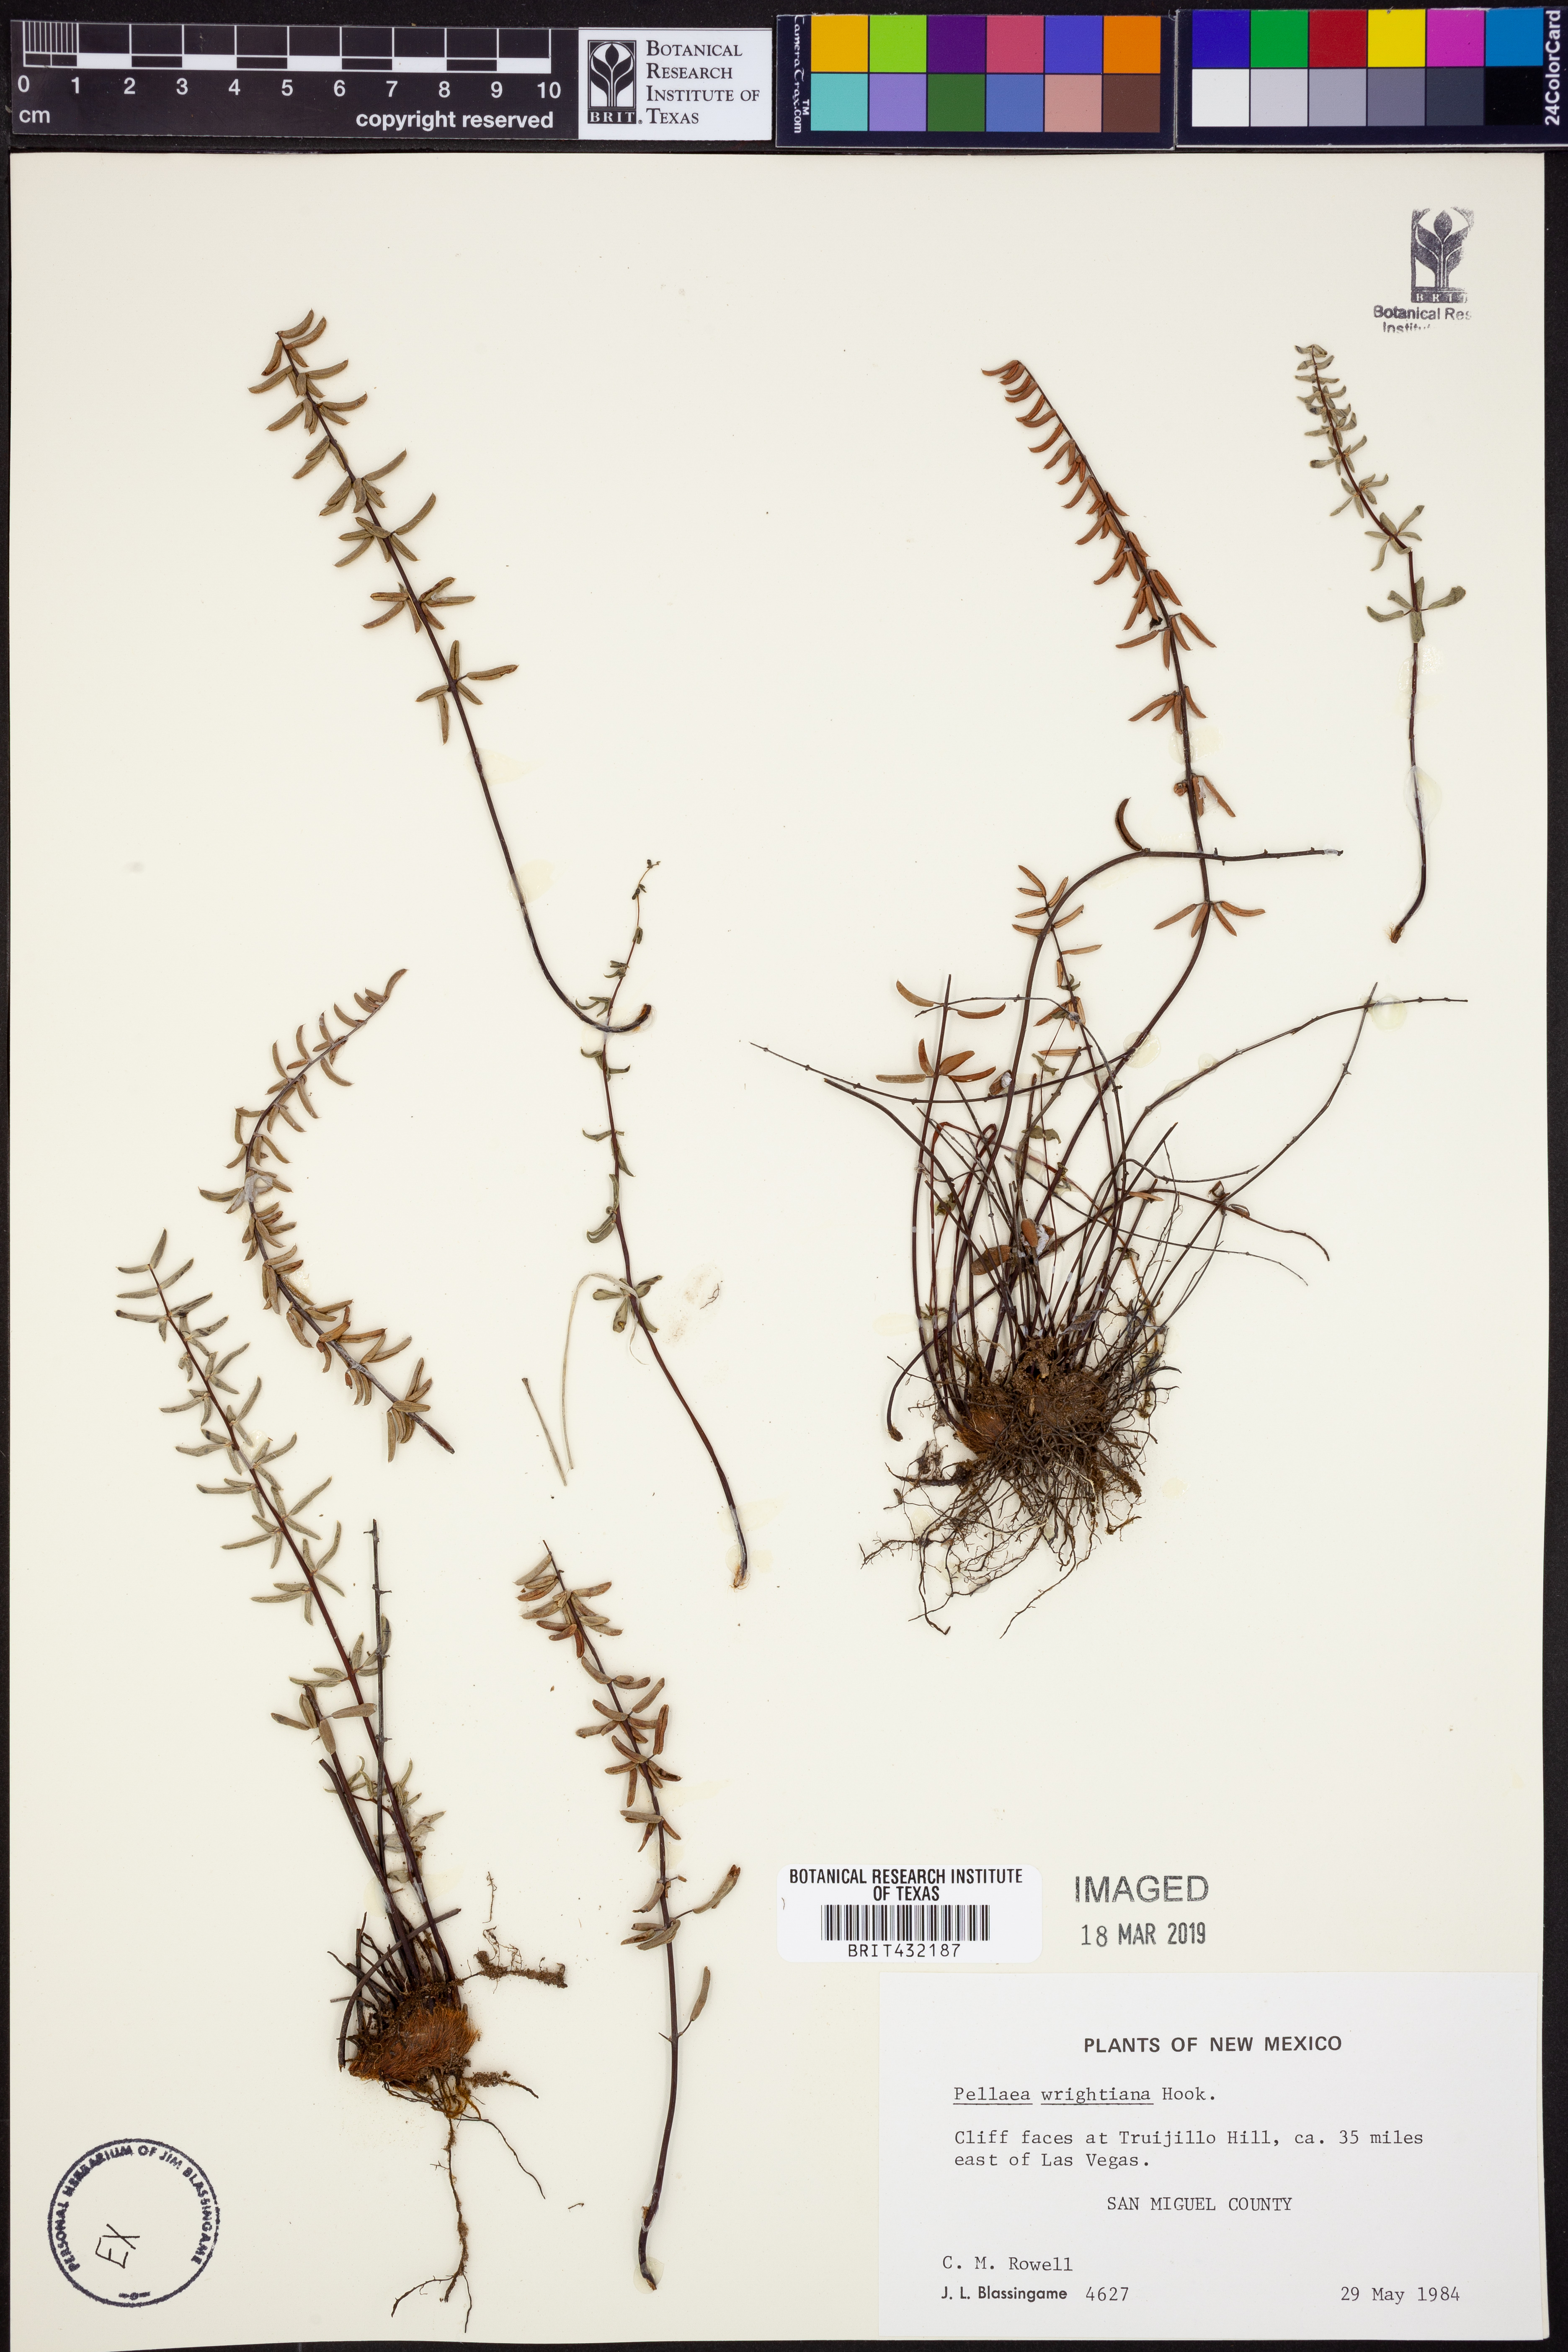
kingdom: Plantae
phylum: Tracheophyta
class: Polypodiopsida
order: Polypodiales
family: Pteridaceae
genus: Pellaea
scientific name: Pellaea wrightiana
